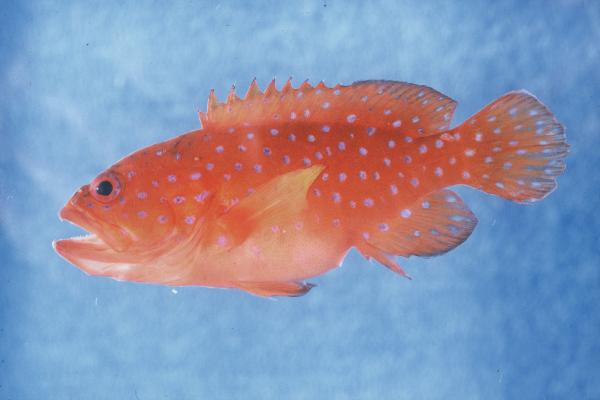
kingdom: Animalia
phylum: Chordata
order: Perciformes
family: Serranidae
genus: Cephalopholis
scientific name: Cephalopholis miniata
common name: Coral hind
